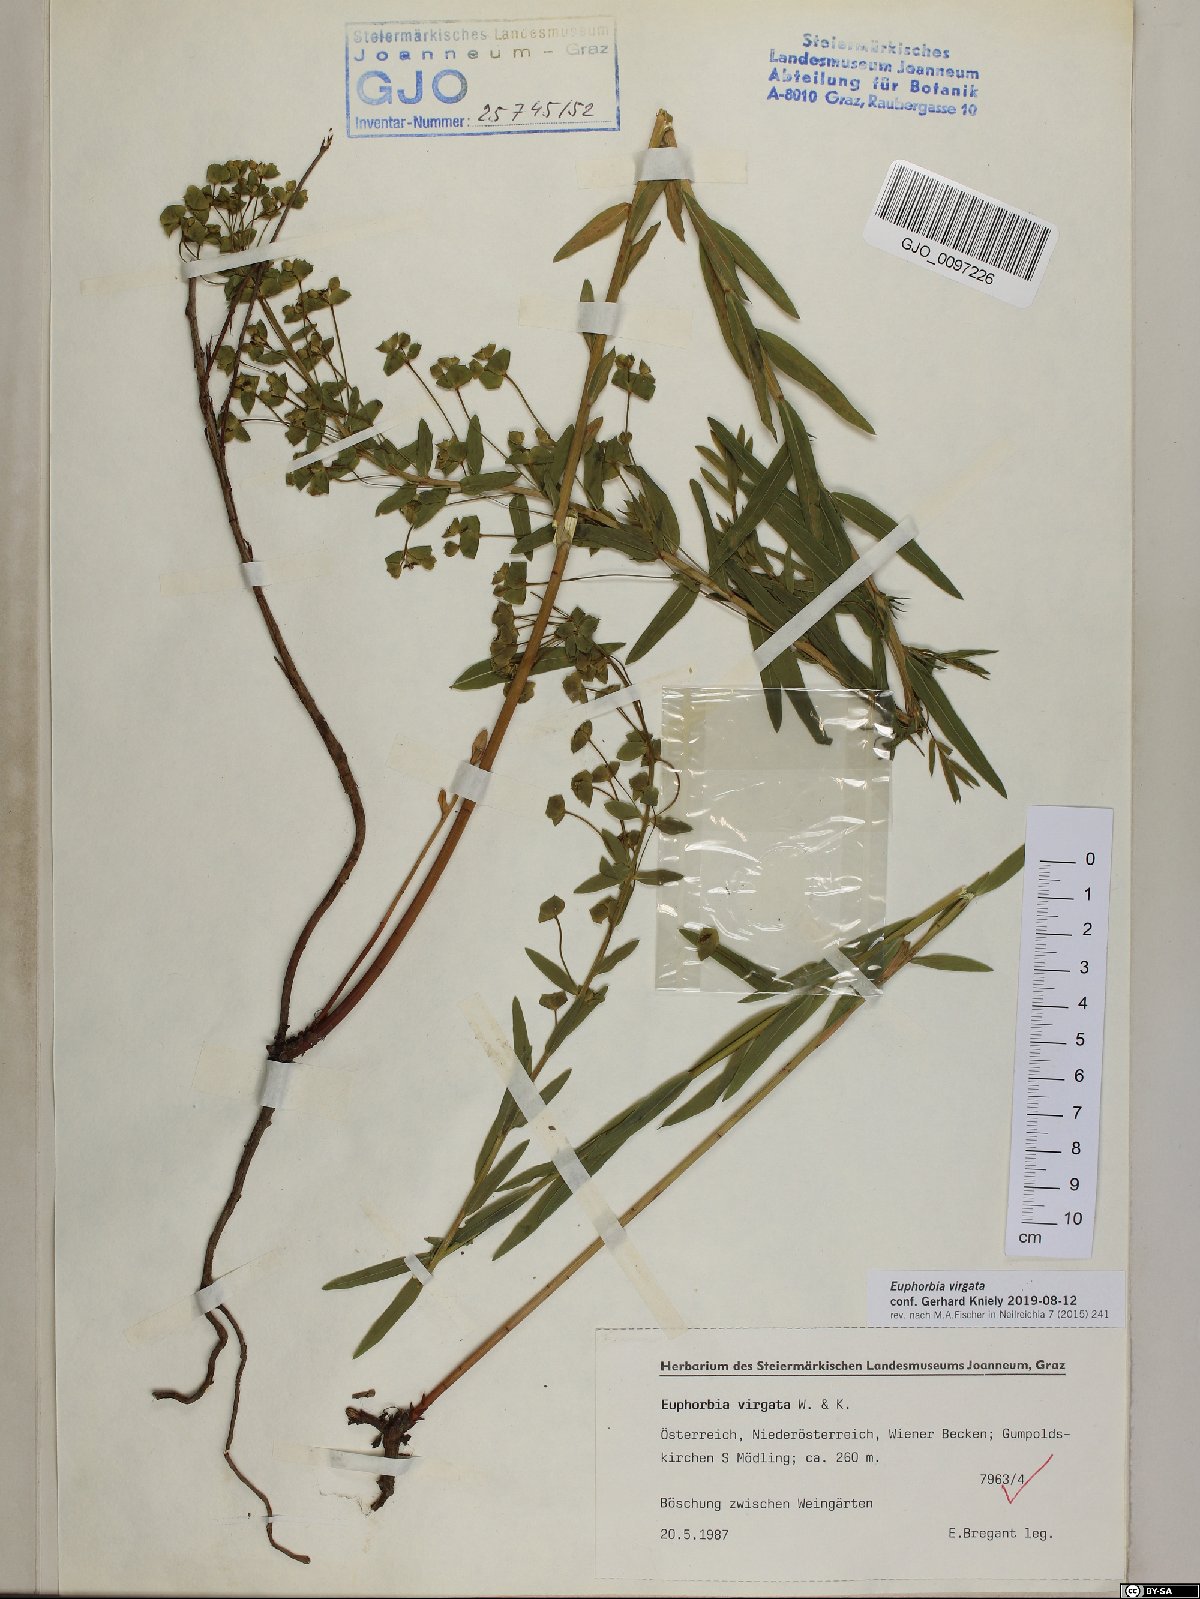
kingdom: Plantae
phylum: Tracheophyta
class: Magnoliopsida
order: Malpighiales
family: Euphorbiaceae
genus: Euphorbia
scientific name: Euphorbia virgata
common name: Leafy spurge
